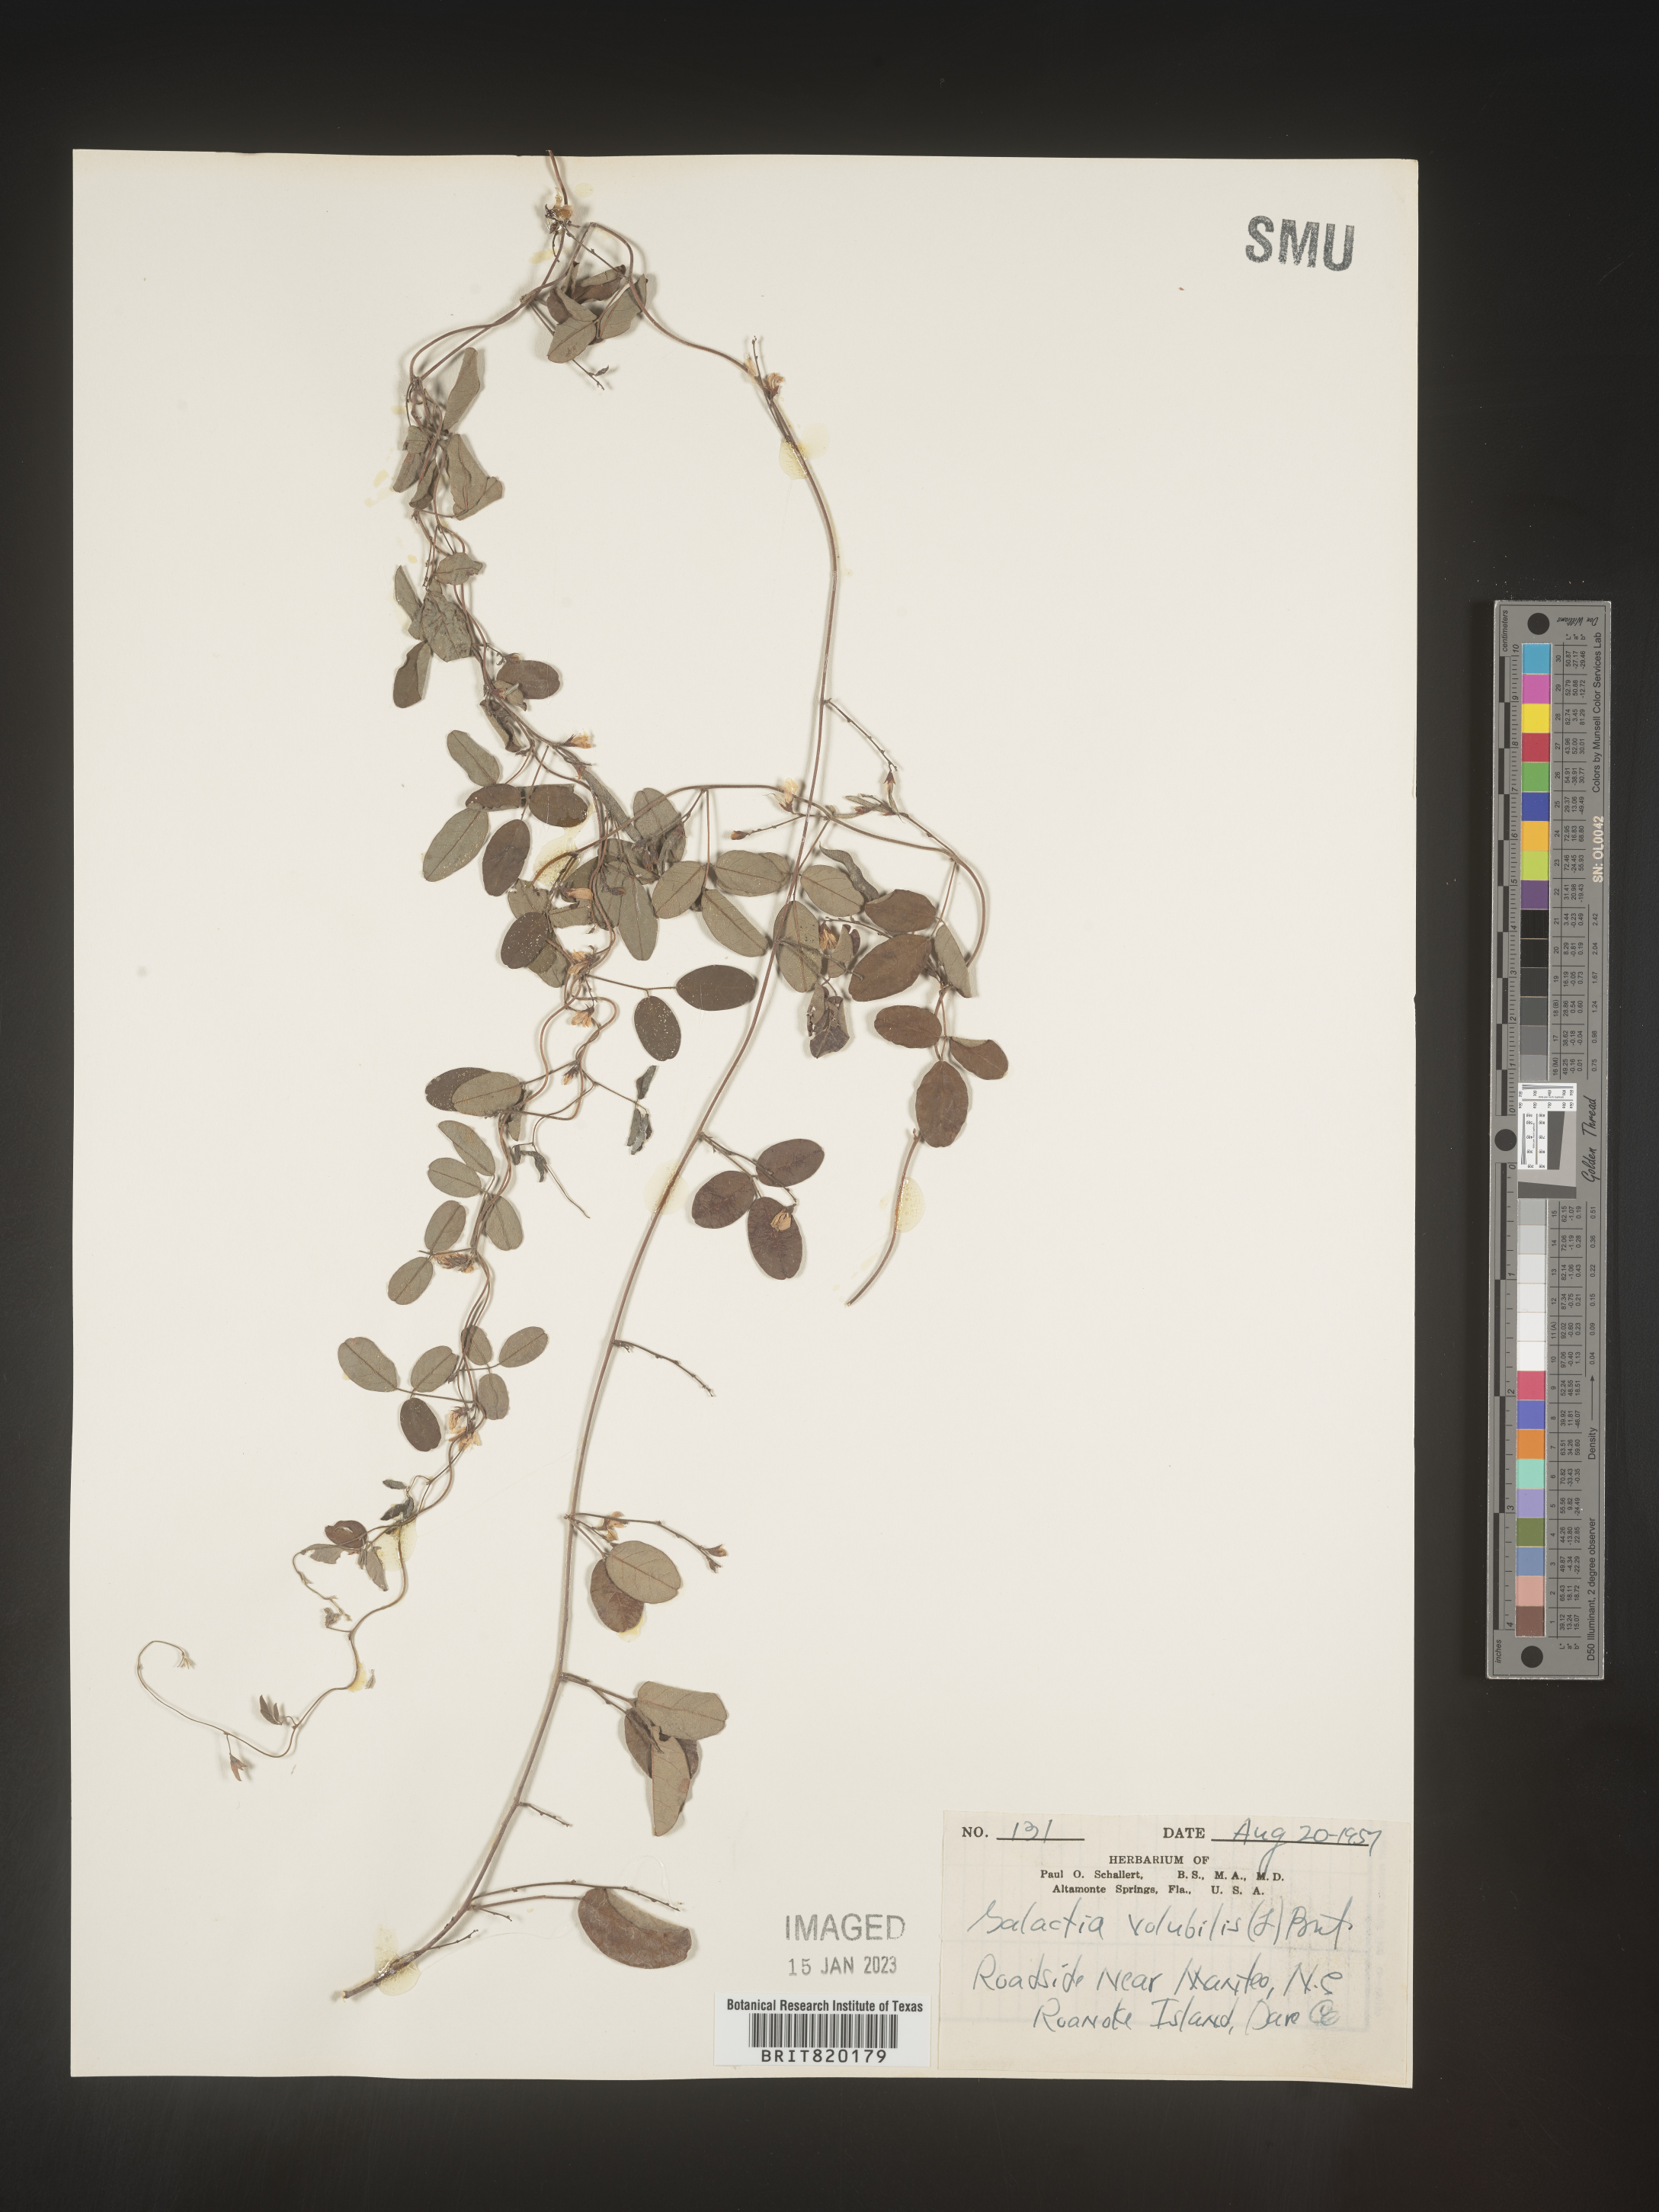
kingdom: Plantae
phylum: Tracheophyta
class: Magnoliopsida
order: Fabales
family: Fabaceae
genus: Galactia
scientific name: Galactia volubilis
